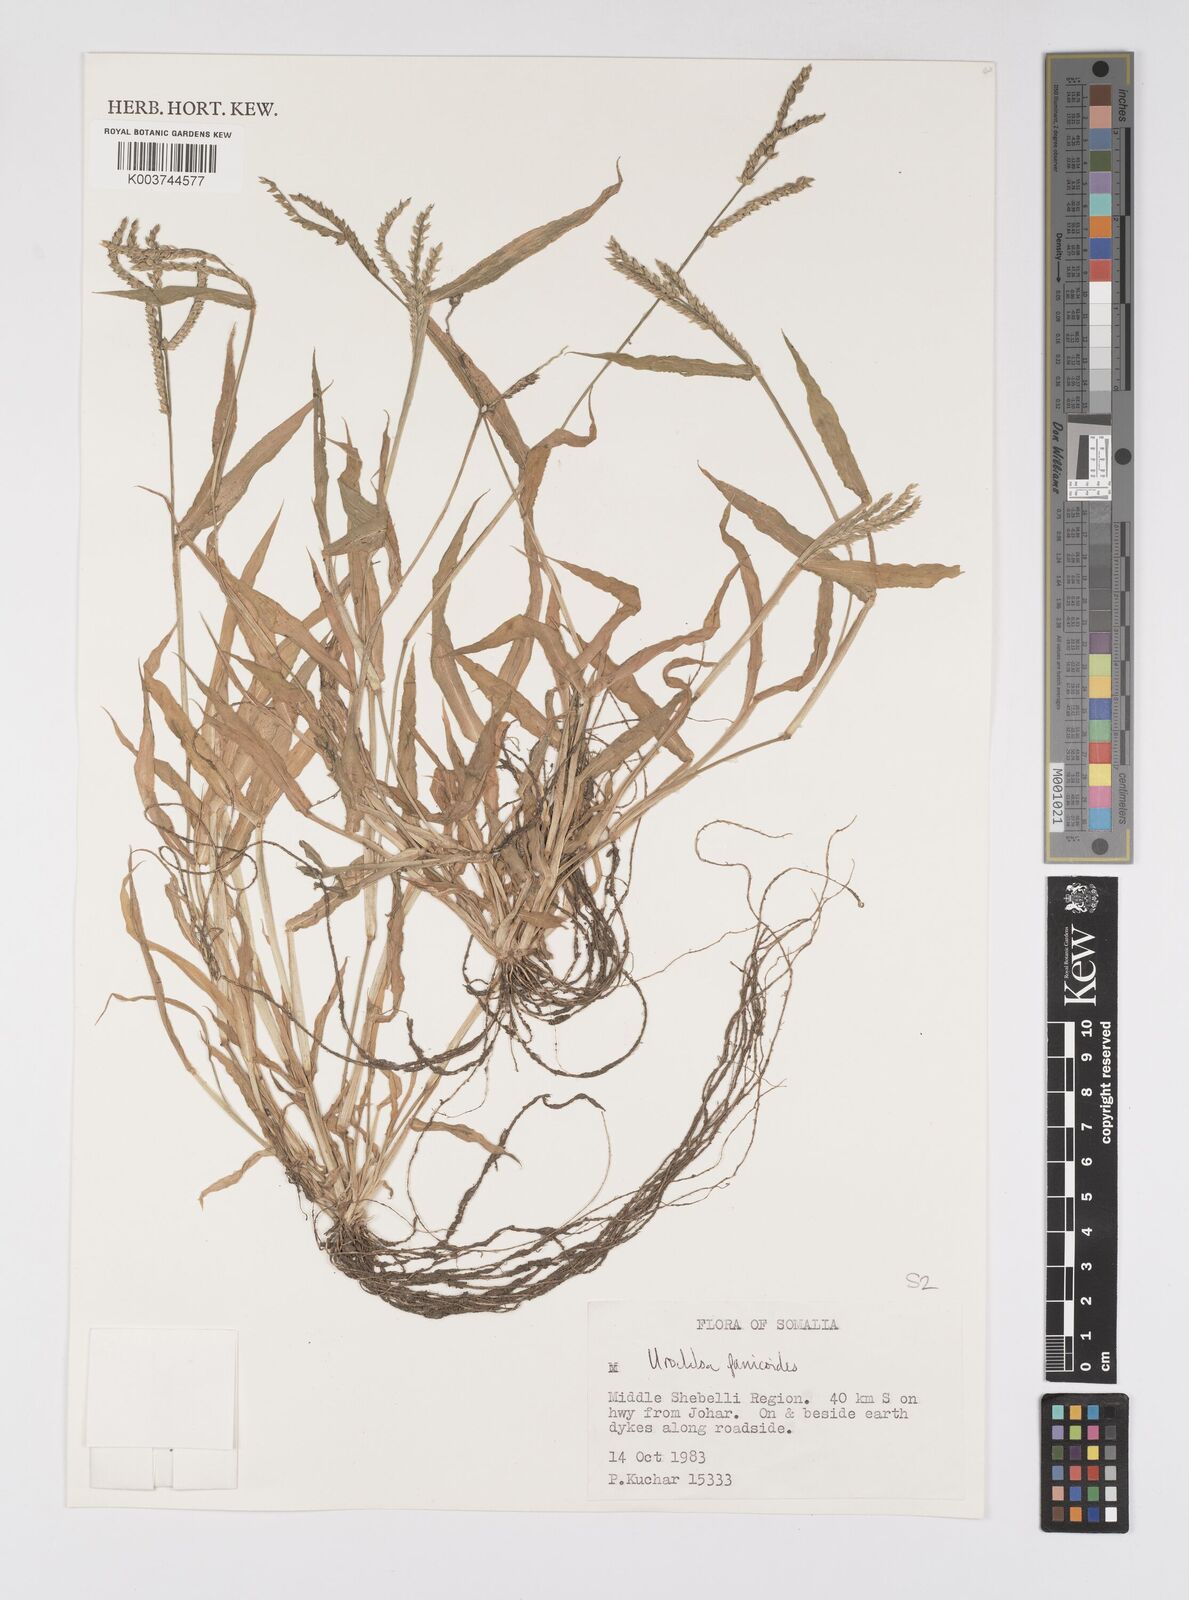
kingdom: Plantae
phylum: Tracheophyta
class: Liliopsida
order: Poales
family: Poaceae
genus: Urochloa
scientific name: Urochloa panicoides
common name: Sharp-flowered signal-grass
